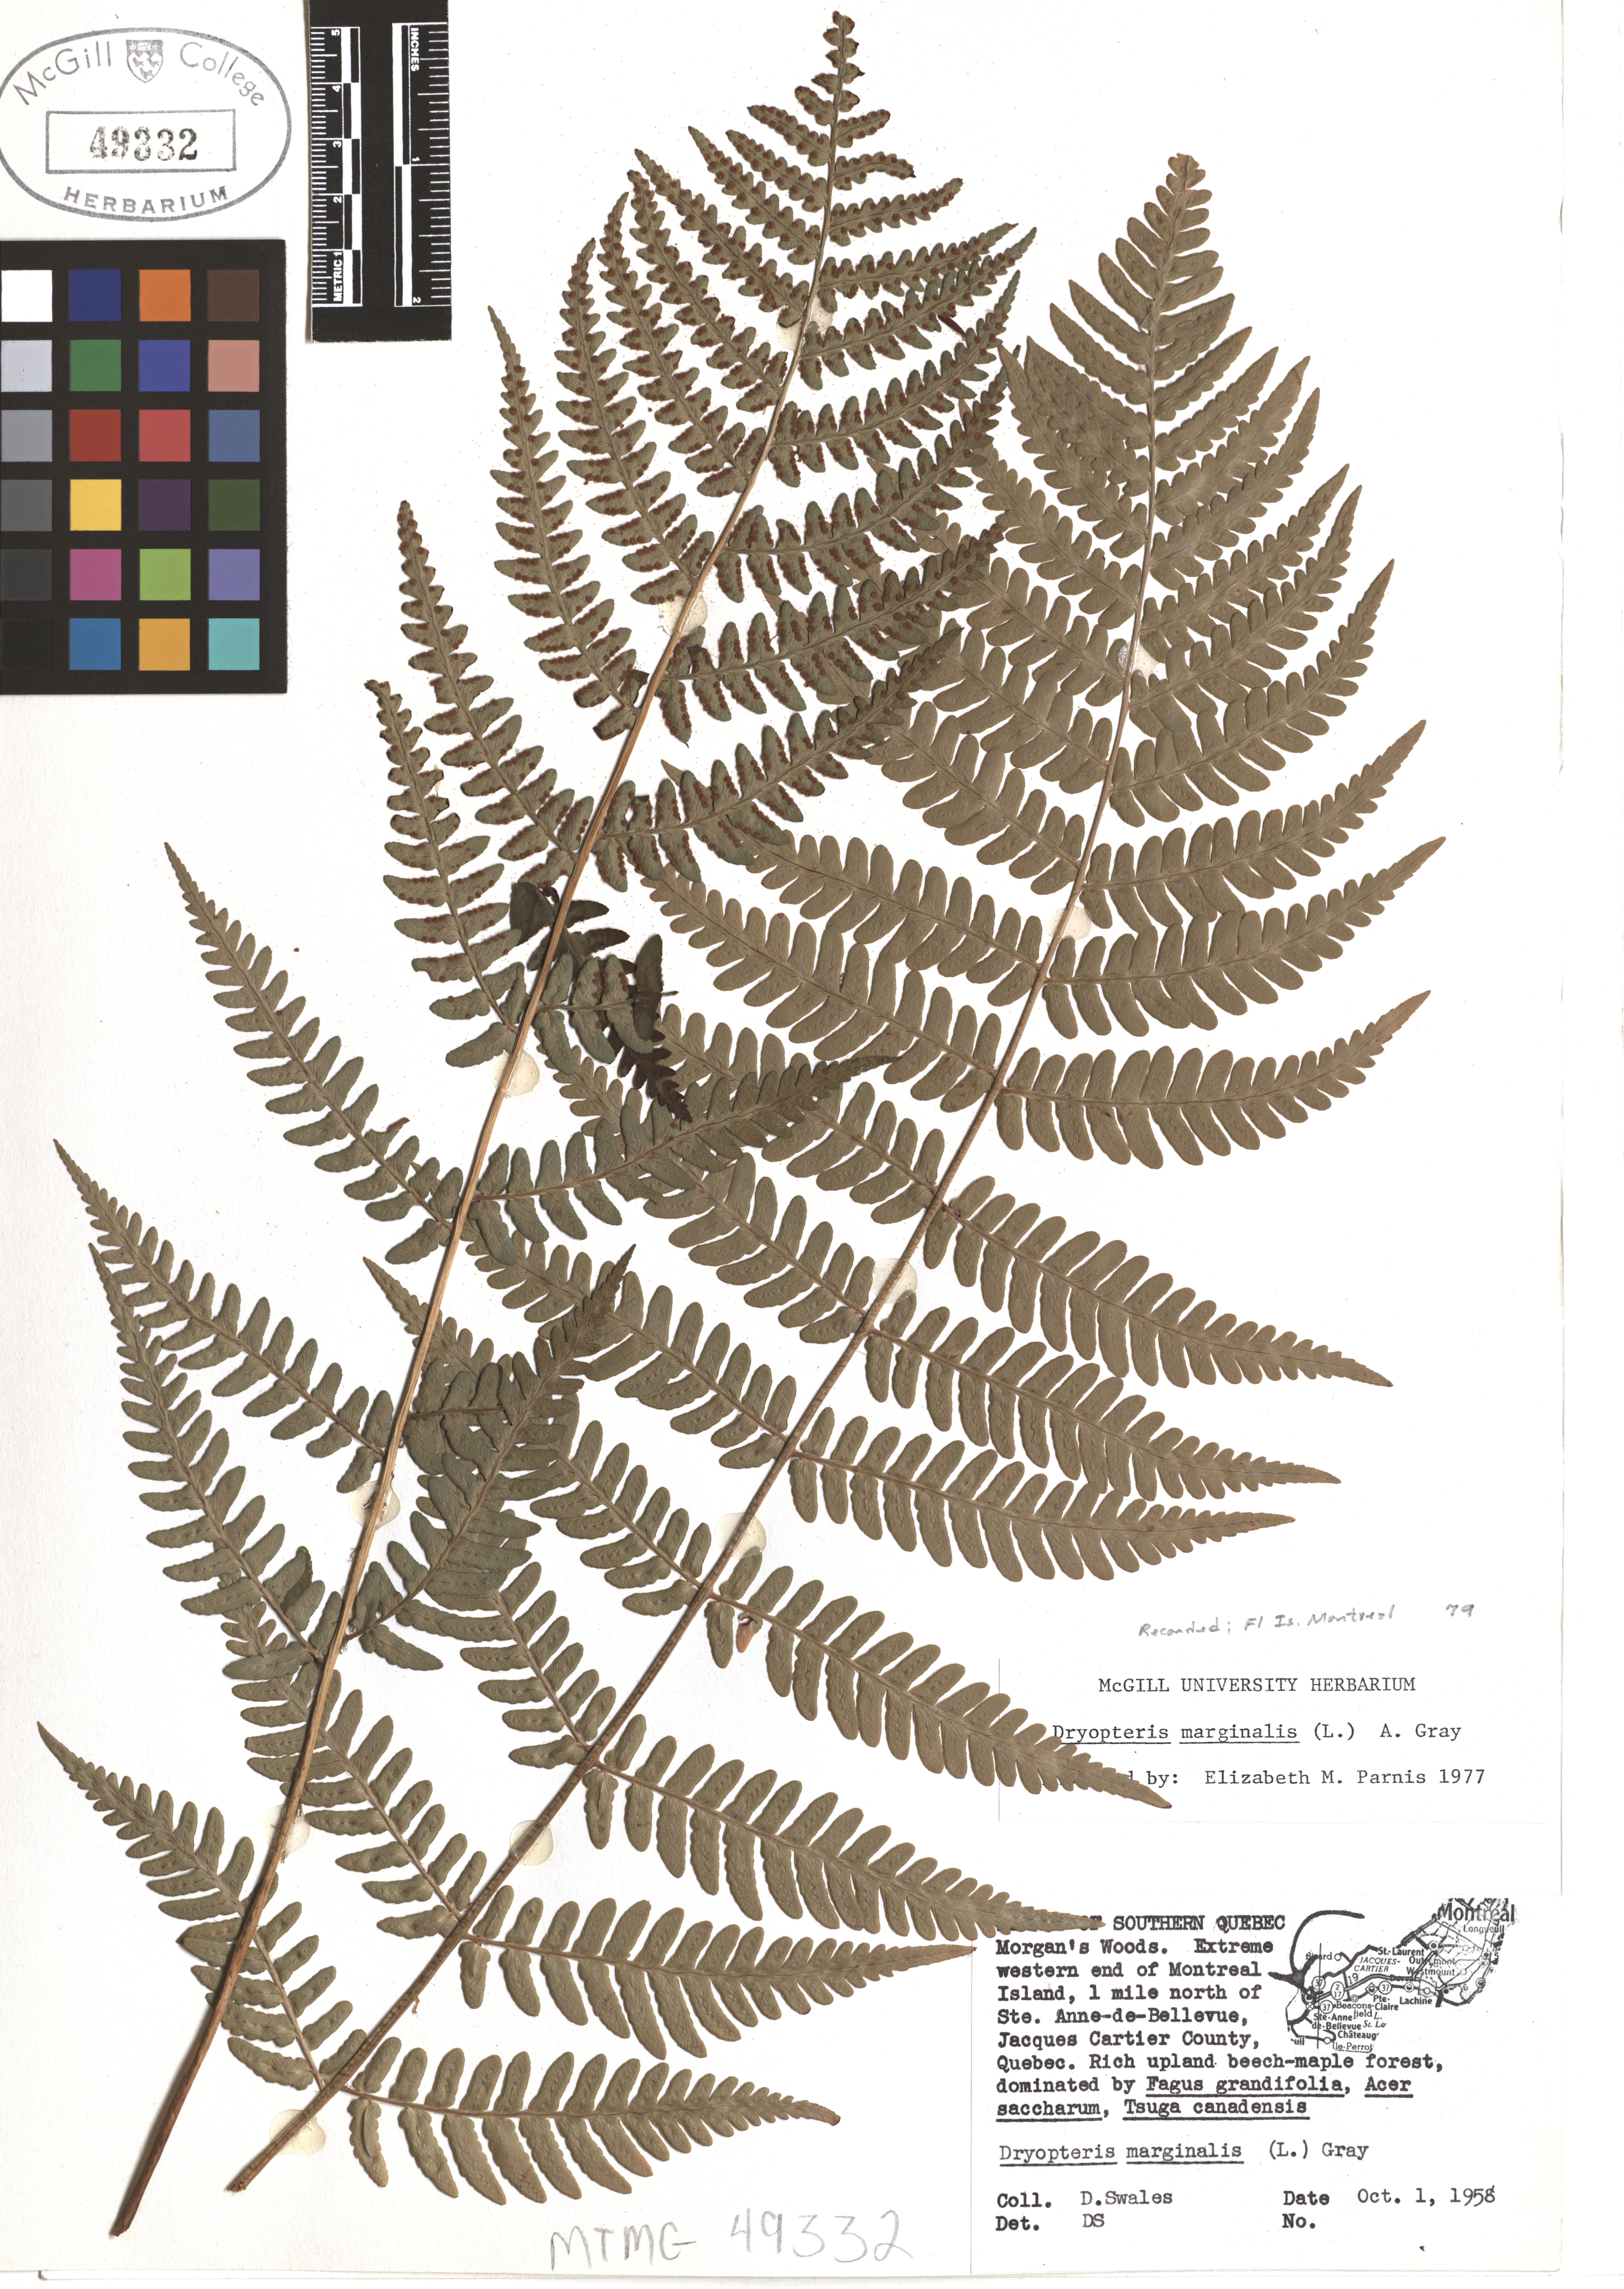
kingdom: Plantae
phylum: Tracheophyta
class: Polypodiopsida
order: Polypodiales
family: Dryopteridaceae
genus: Dryopteris
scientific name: Dryopteris marginalis
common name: Marginal wood fern
